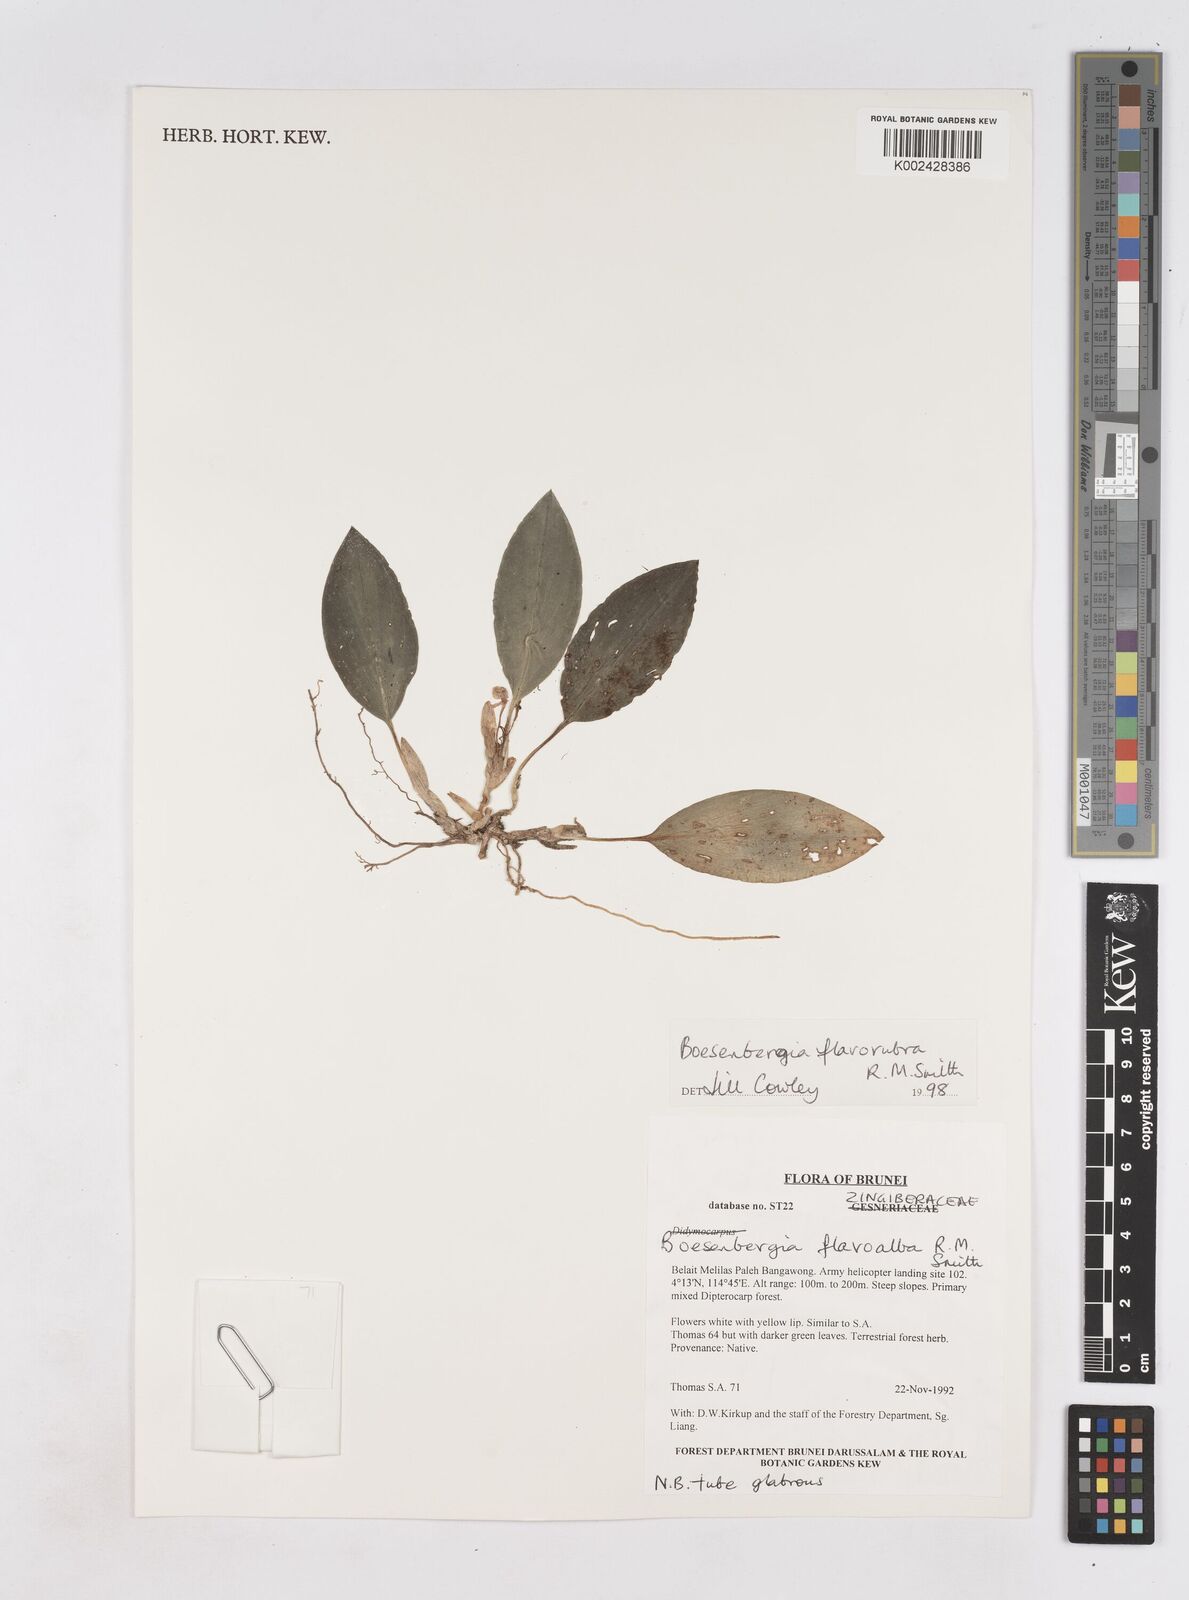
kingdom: Plantae
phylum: Tracheophyta
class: Liliopsida
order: Zingiberales
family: Zingiberaceae
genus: Boesenbergia
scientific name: Boesenbergia flavorubra
